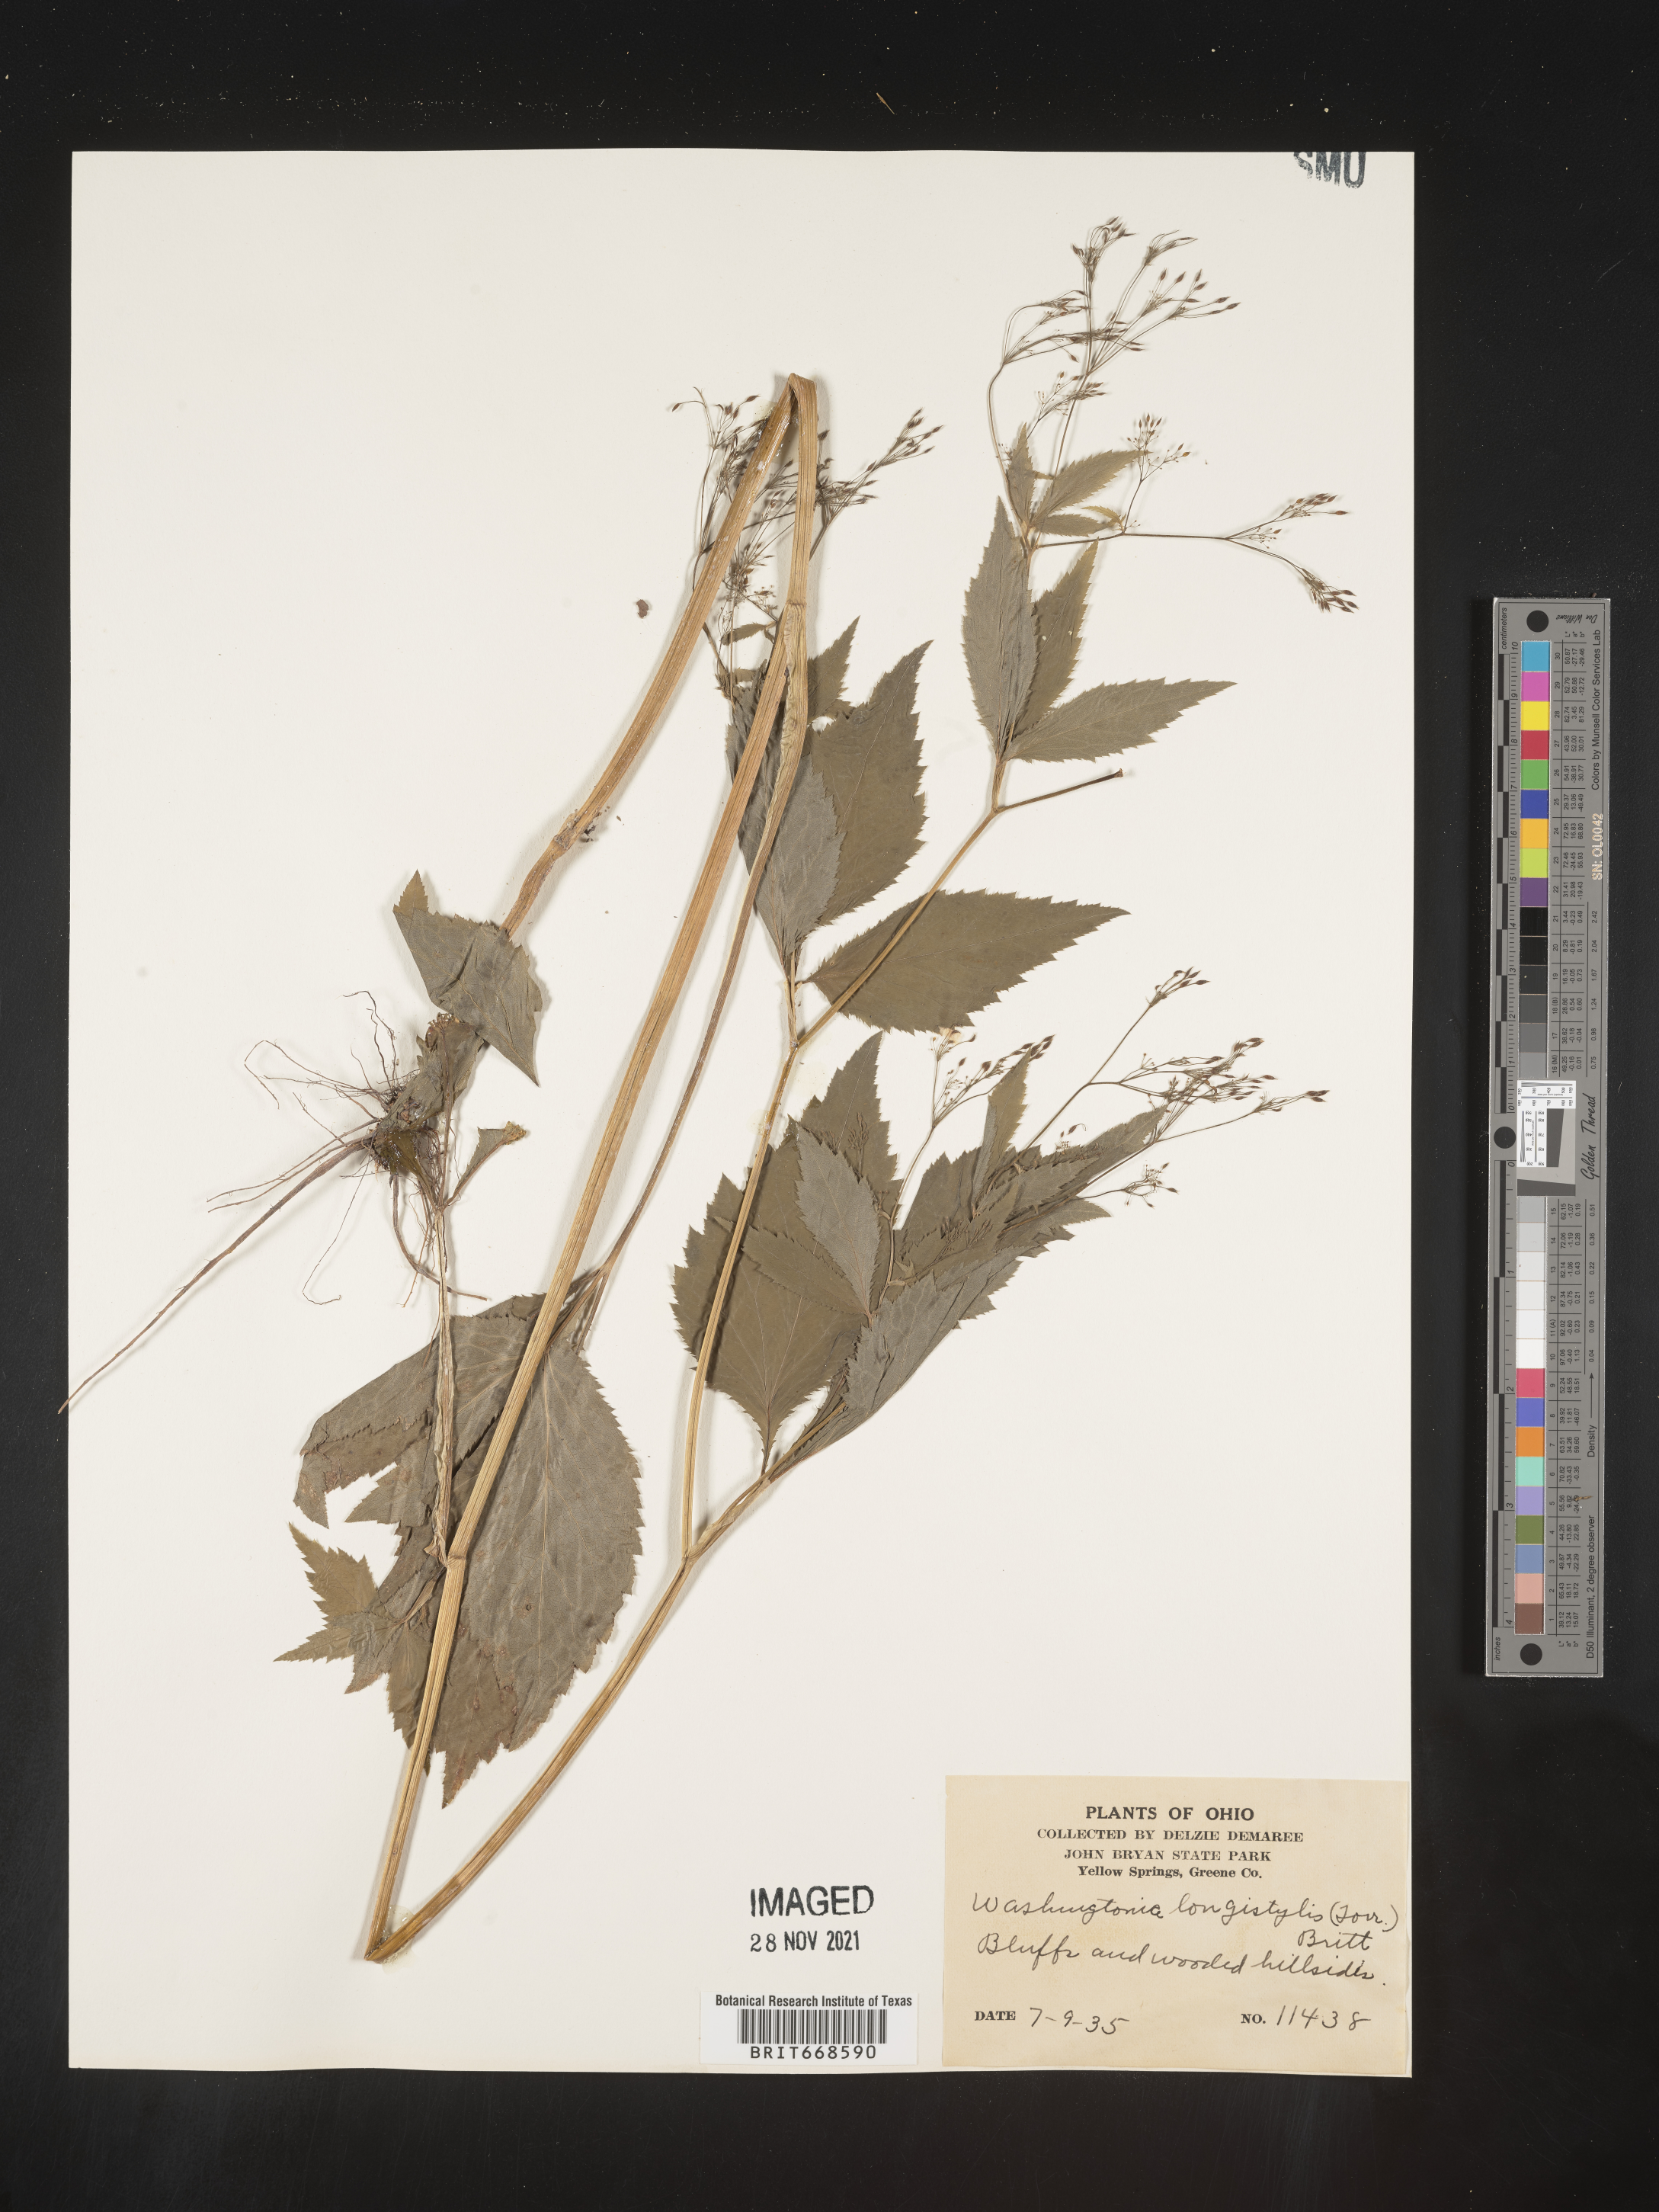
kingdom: Plantae
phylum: Tracheophyta
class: Magnoliopsida
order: Apiales
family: Apiaceae
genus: Cryptotaenia
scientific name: Cryptotaenia canadensis
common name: Honewort
